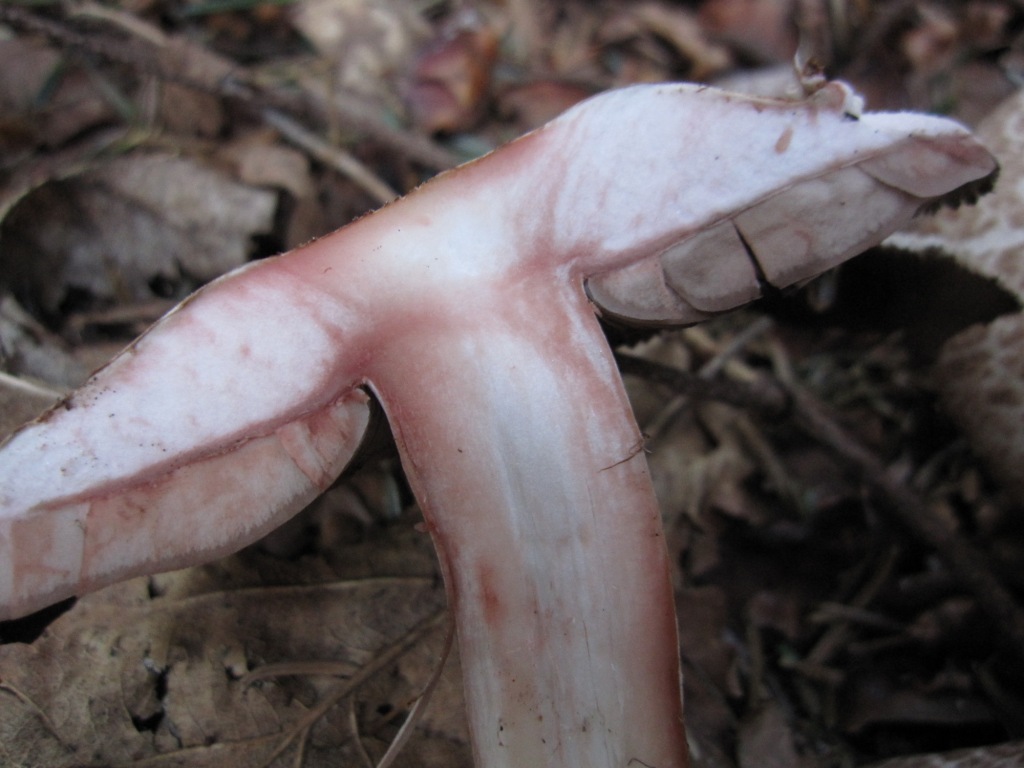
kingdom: Fungi
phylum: Basidiomycota
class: Agaricomycetes
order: Agaricales
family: Agaricaceae
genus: Agaricus
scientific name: Agaricus sylvaticus
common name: lille blod-champignon
